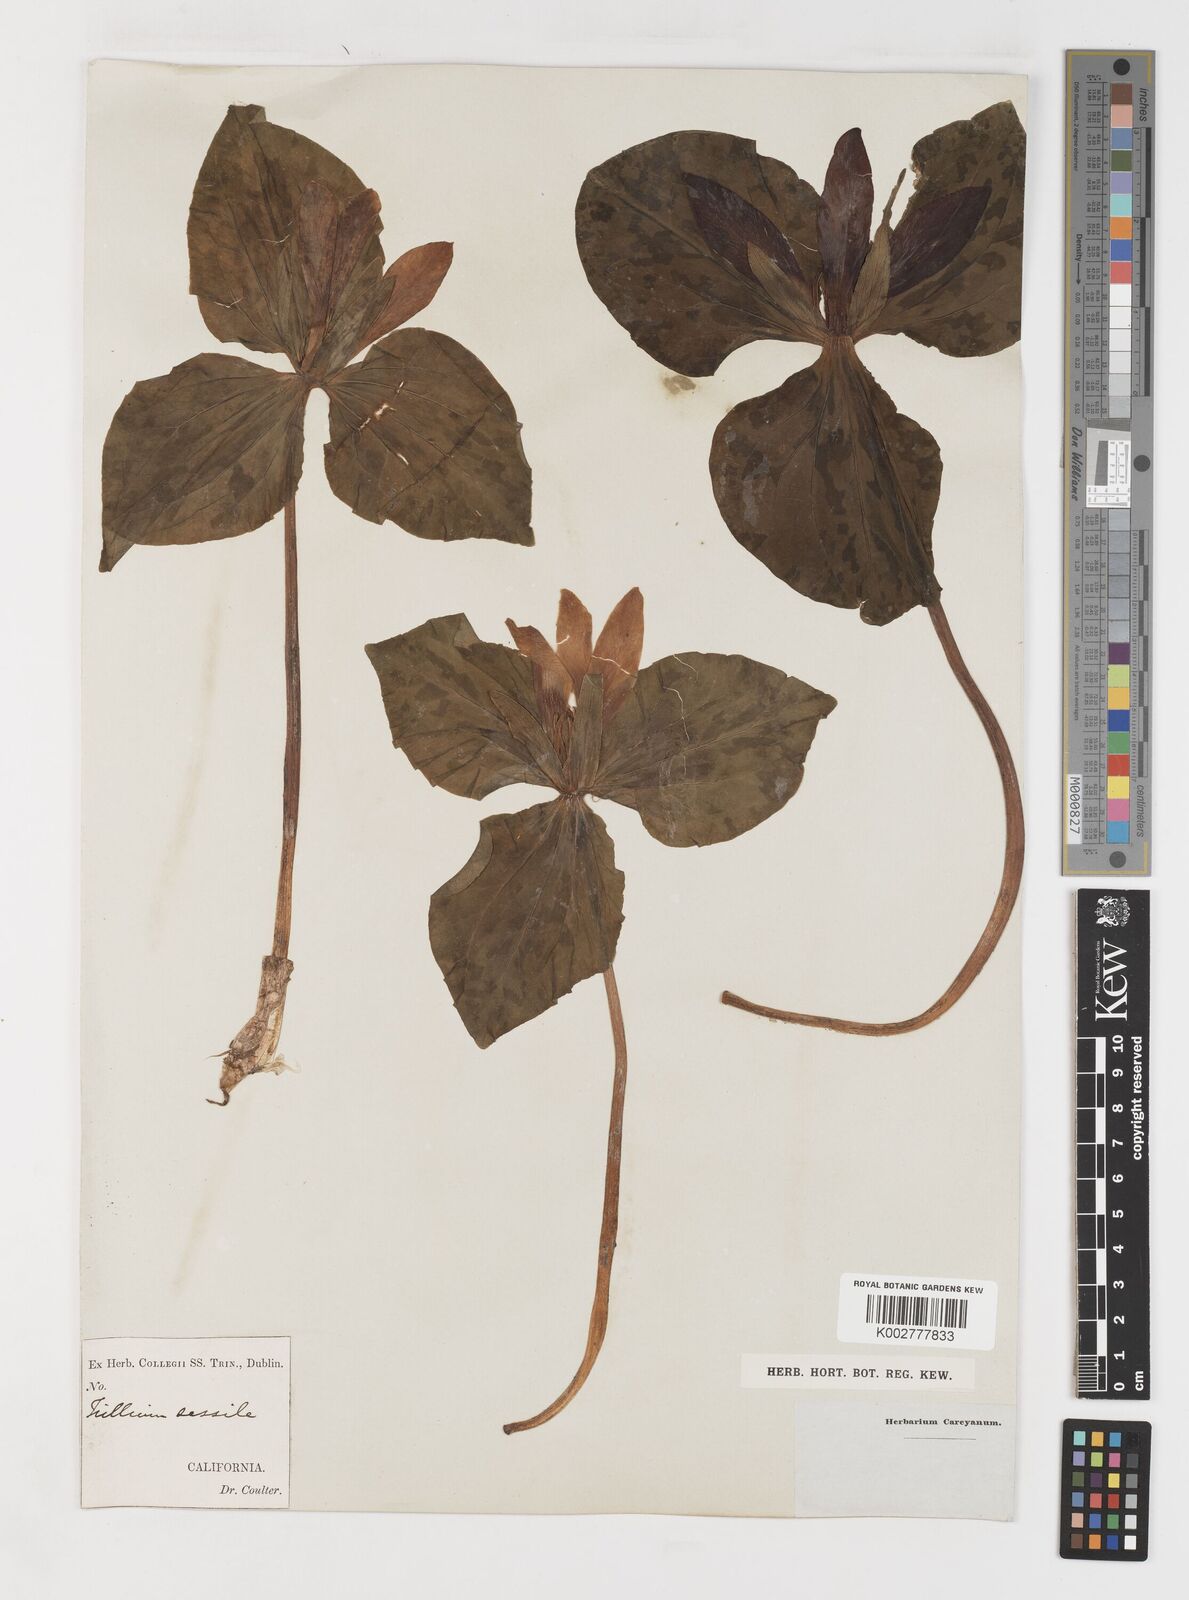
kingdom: Plantae
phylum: Tracheophyta
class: Liliopsida
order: Liliales
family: Melanthiaceae
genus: Trillium
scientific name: Trillium chloropetalum
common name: Giant trillium
